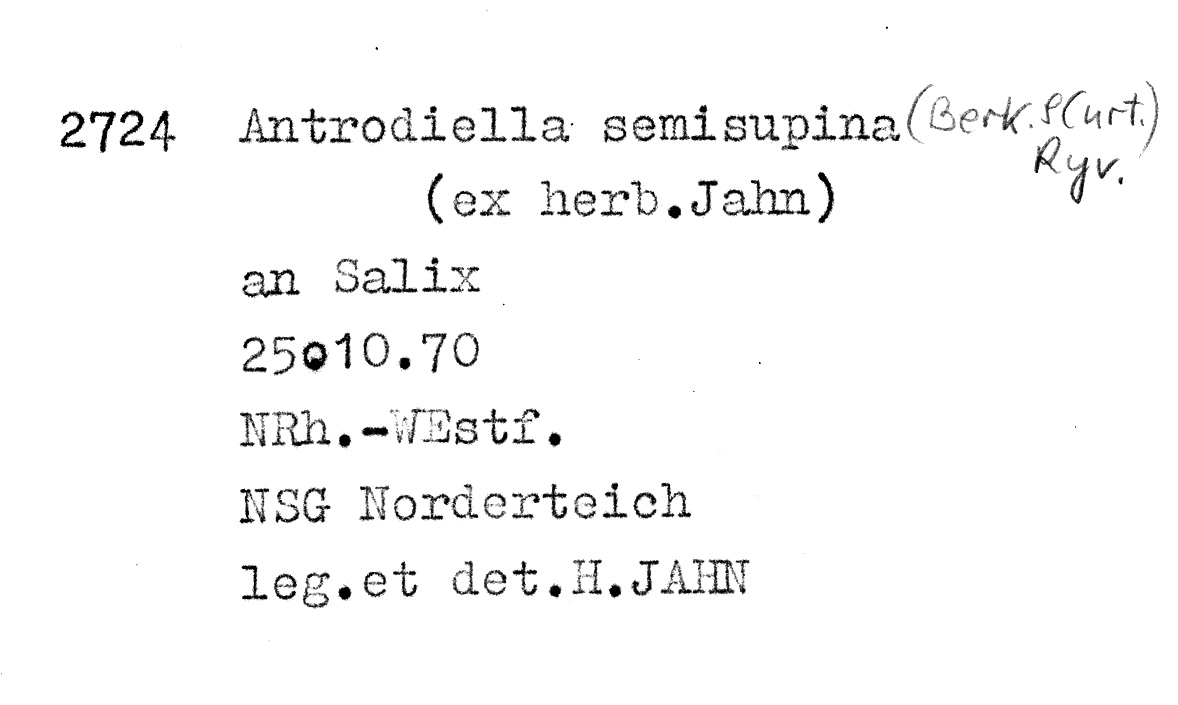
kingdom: Fungi
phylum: Basidiomycota
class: Agaricomycetes
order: Polyporales
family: Steccherinaceae
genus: Antrodiella
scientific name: Antrodiella semisupina
